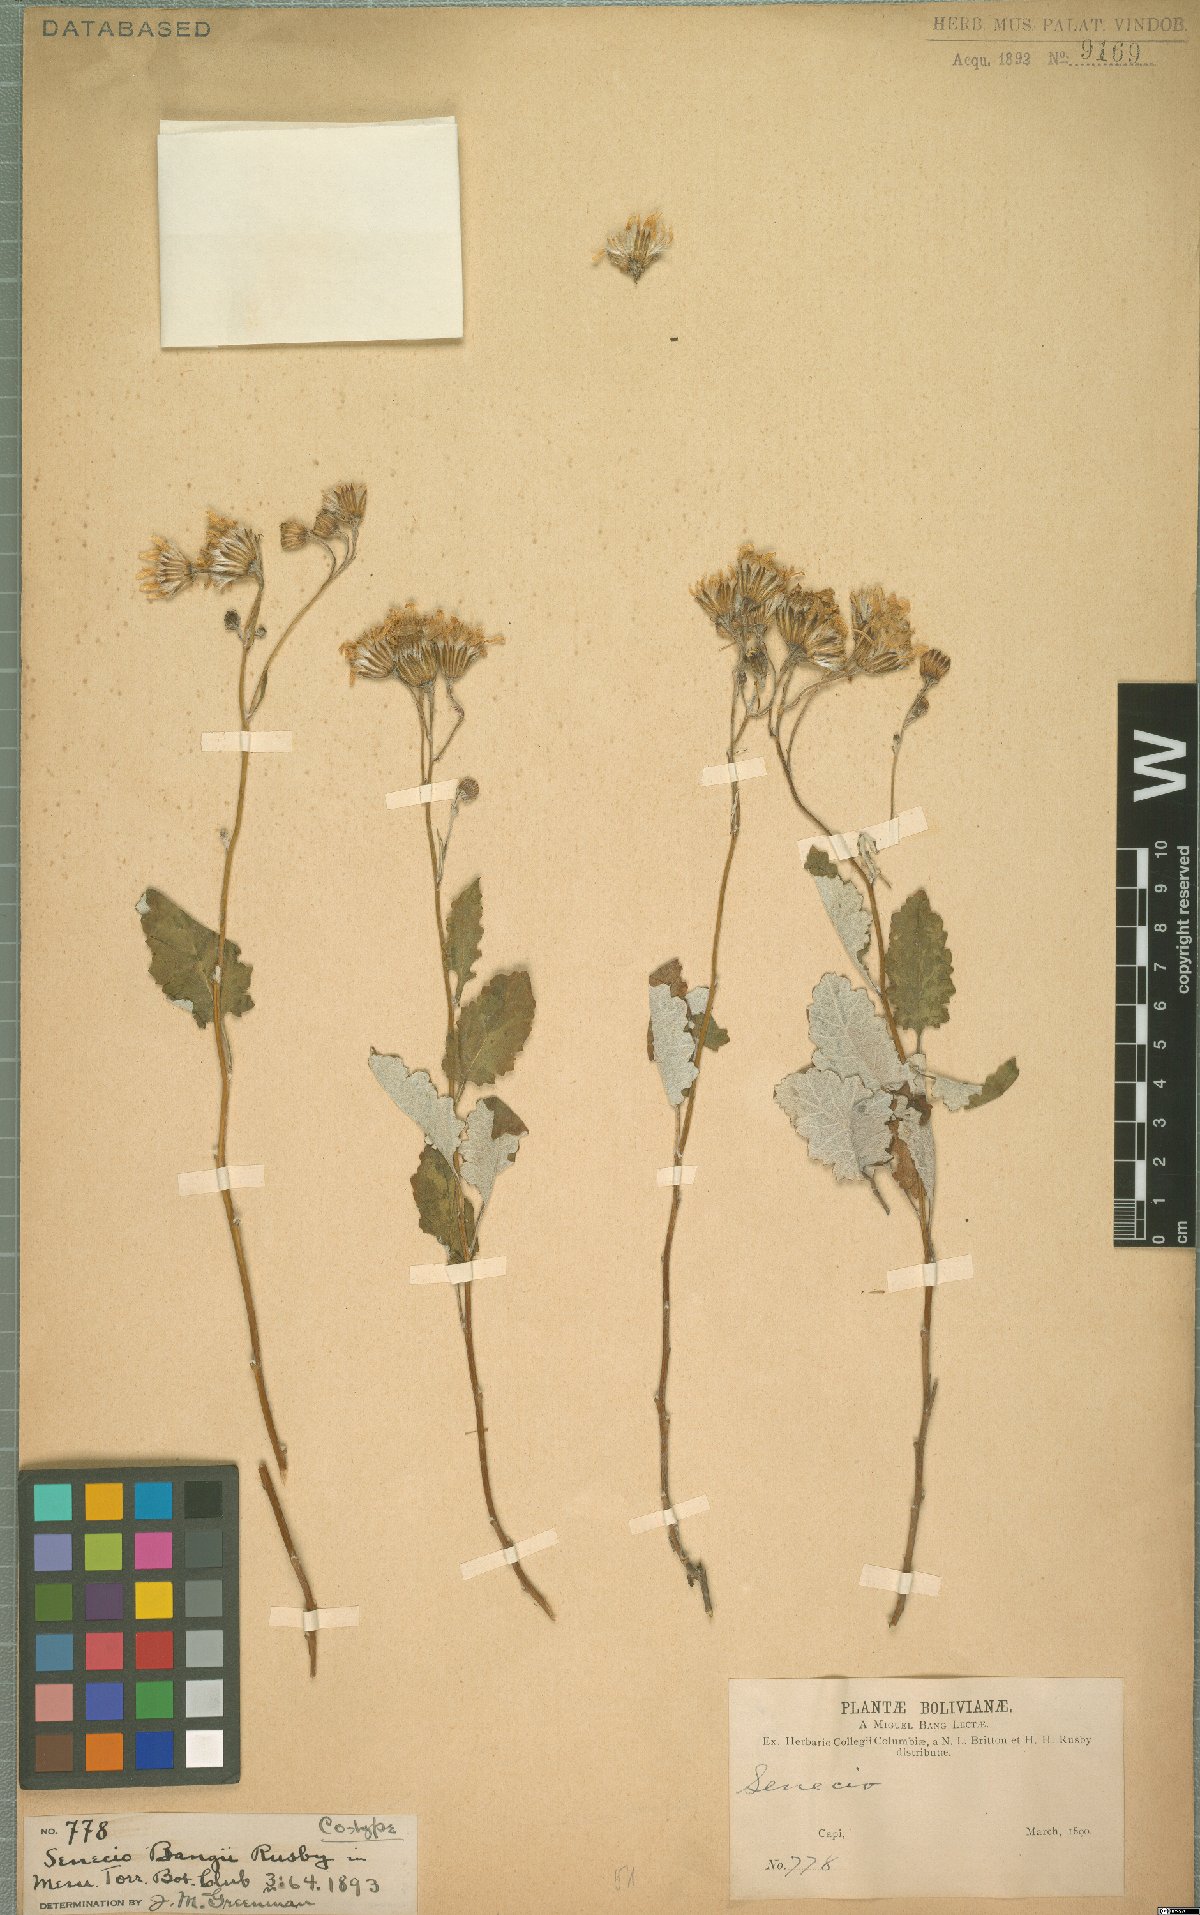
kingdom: Plantae
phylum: Tracheophyta
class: Magnoliopsida
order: Asterales
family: Asteraceae
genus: Lomanthus
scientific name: Lomanthus bangii
